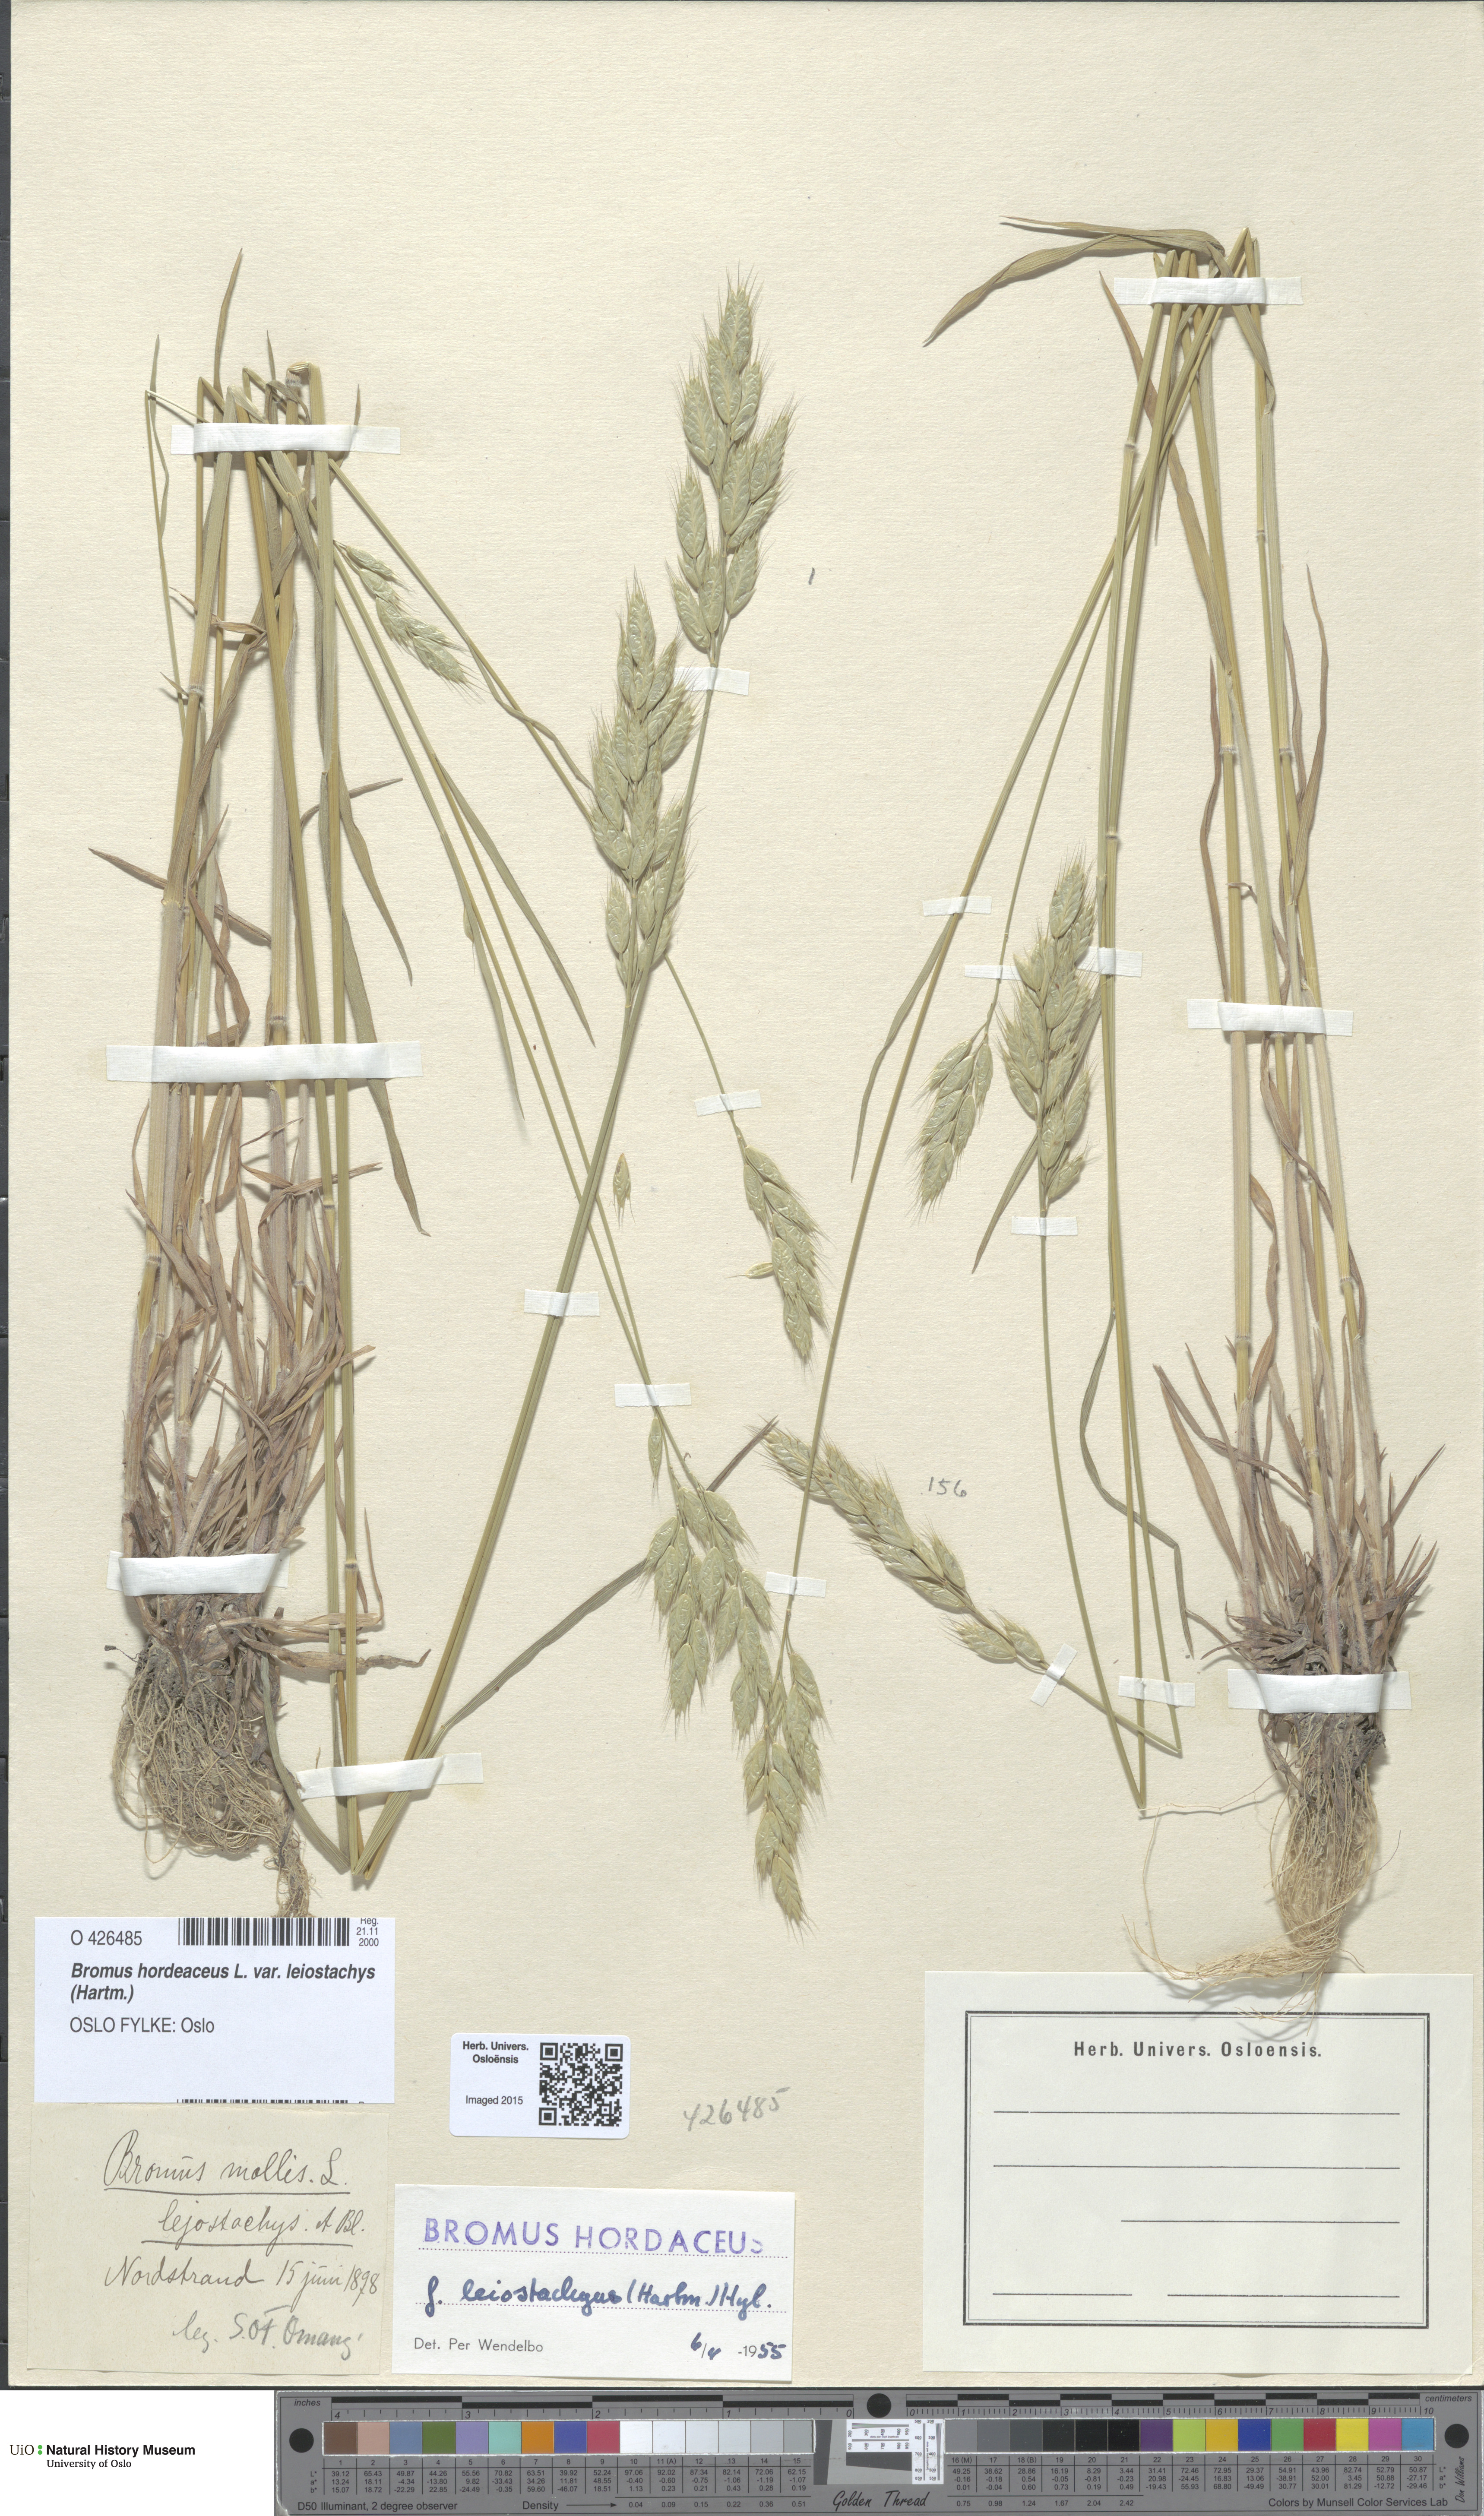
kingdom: Plantae
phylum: Tracheophyta
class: Liliopsida
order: Poales
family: Poaceae
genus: Bromus
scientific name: Bromus racemosus
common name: Bald brome
